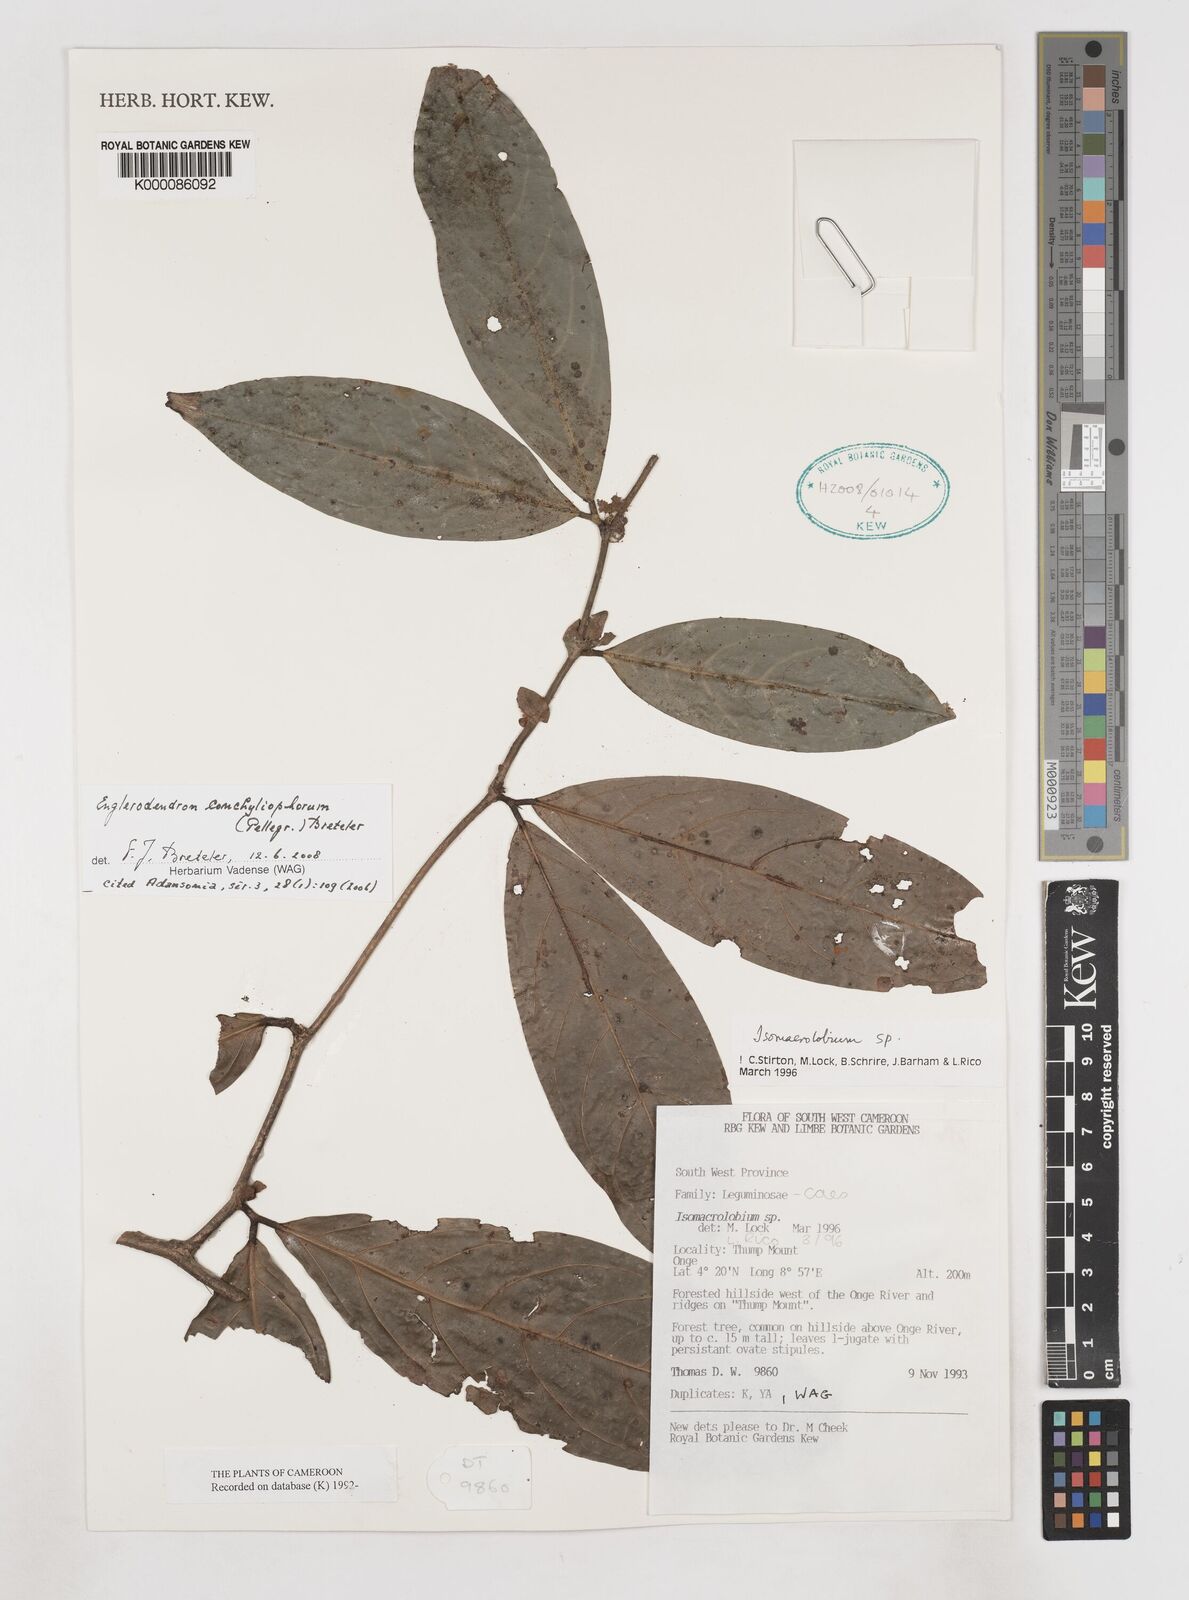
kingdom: Plantae
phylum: Tracheophyta
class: Magnoliopsida
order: Fabales
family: Fabaceae
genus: Englerodendron
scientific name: Englerodendron conchyliophorum
